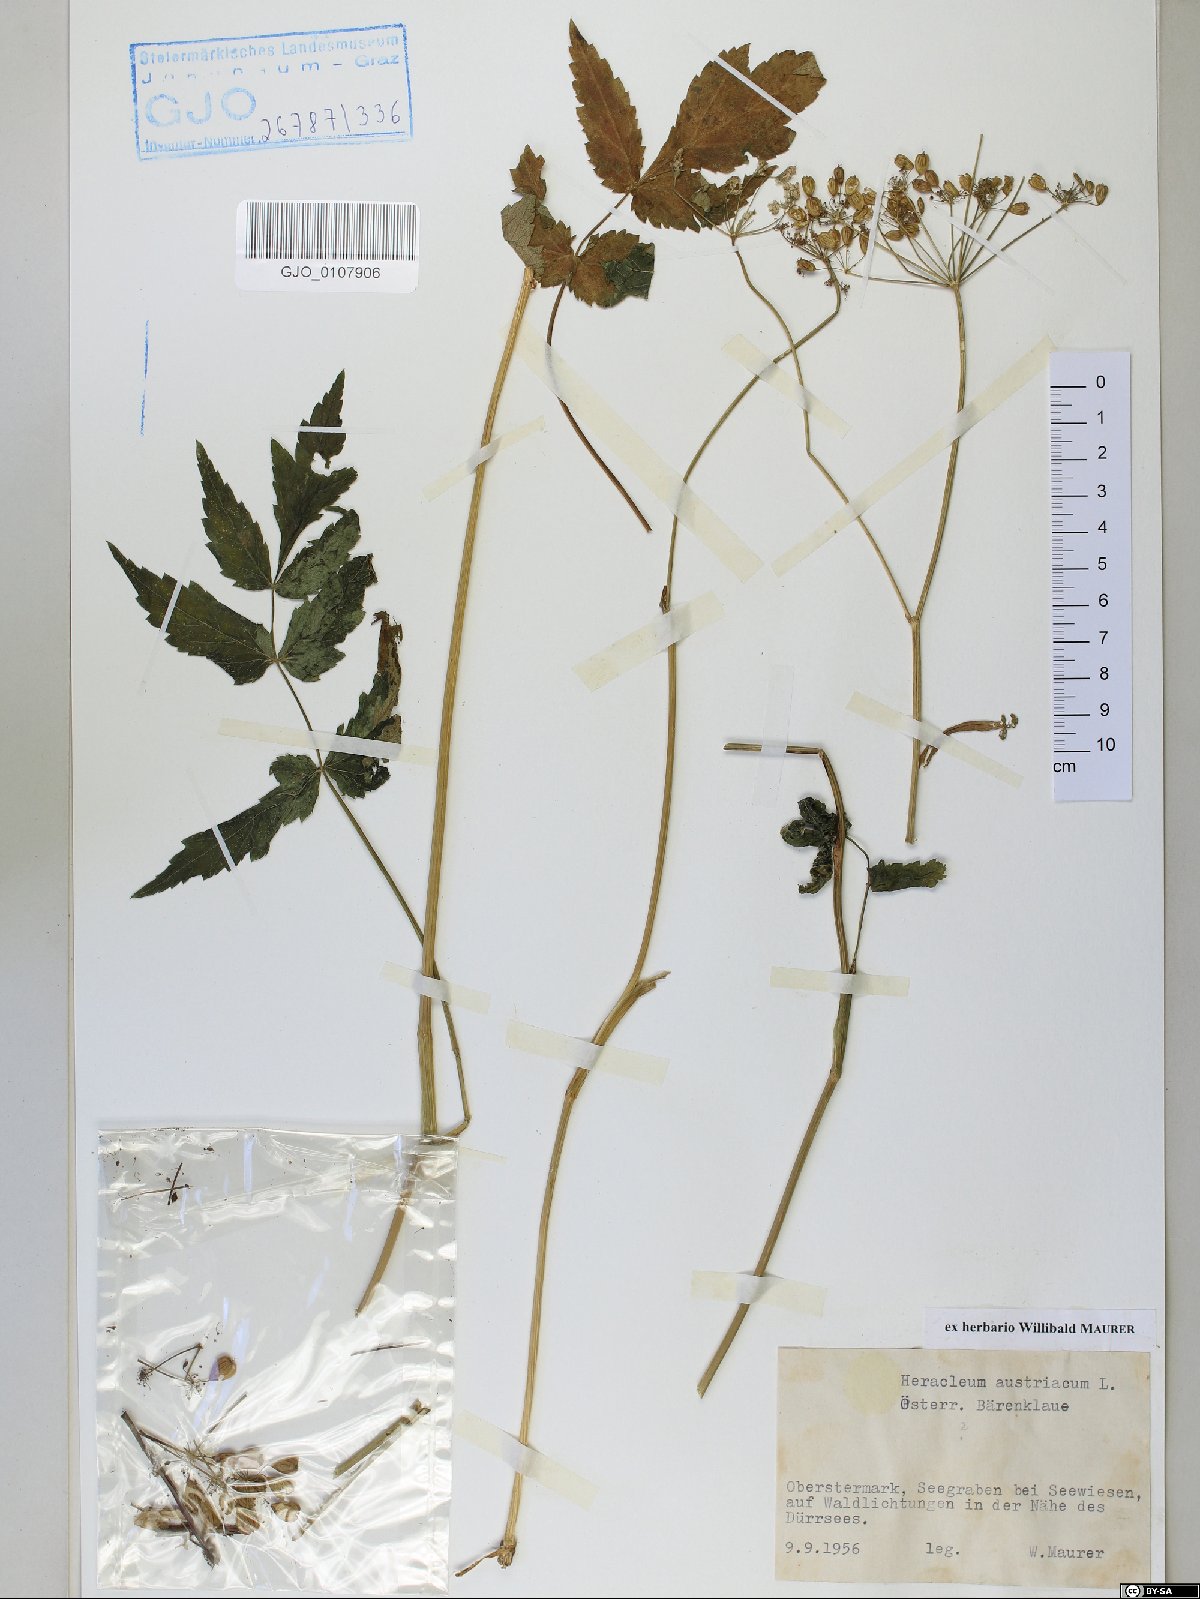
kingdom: Plantae
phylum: Tracheophyta
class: Magnoliopsida
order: Apiales
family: Apiaceae
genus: Heracleum
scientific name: Heracleum austriacum
